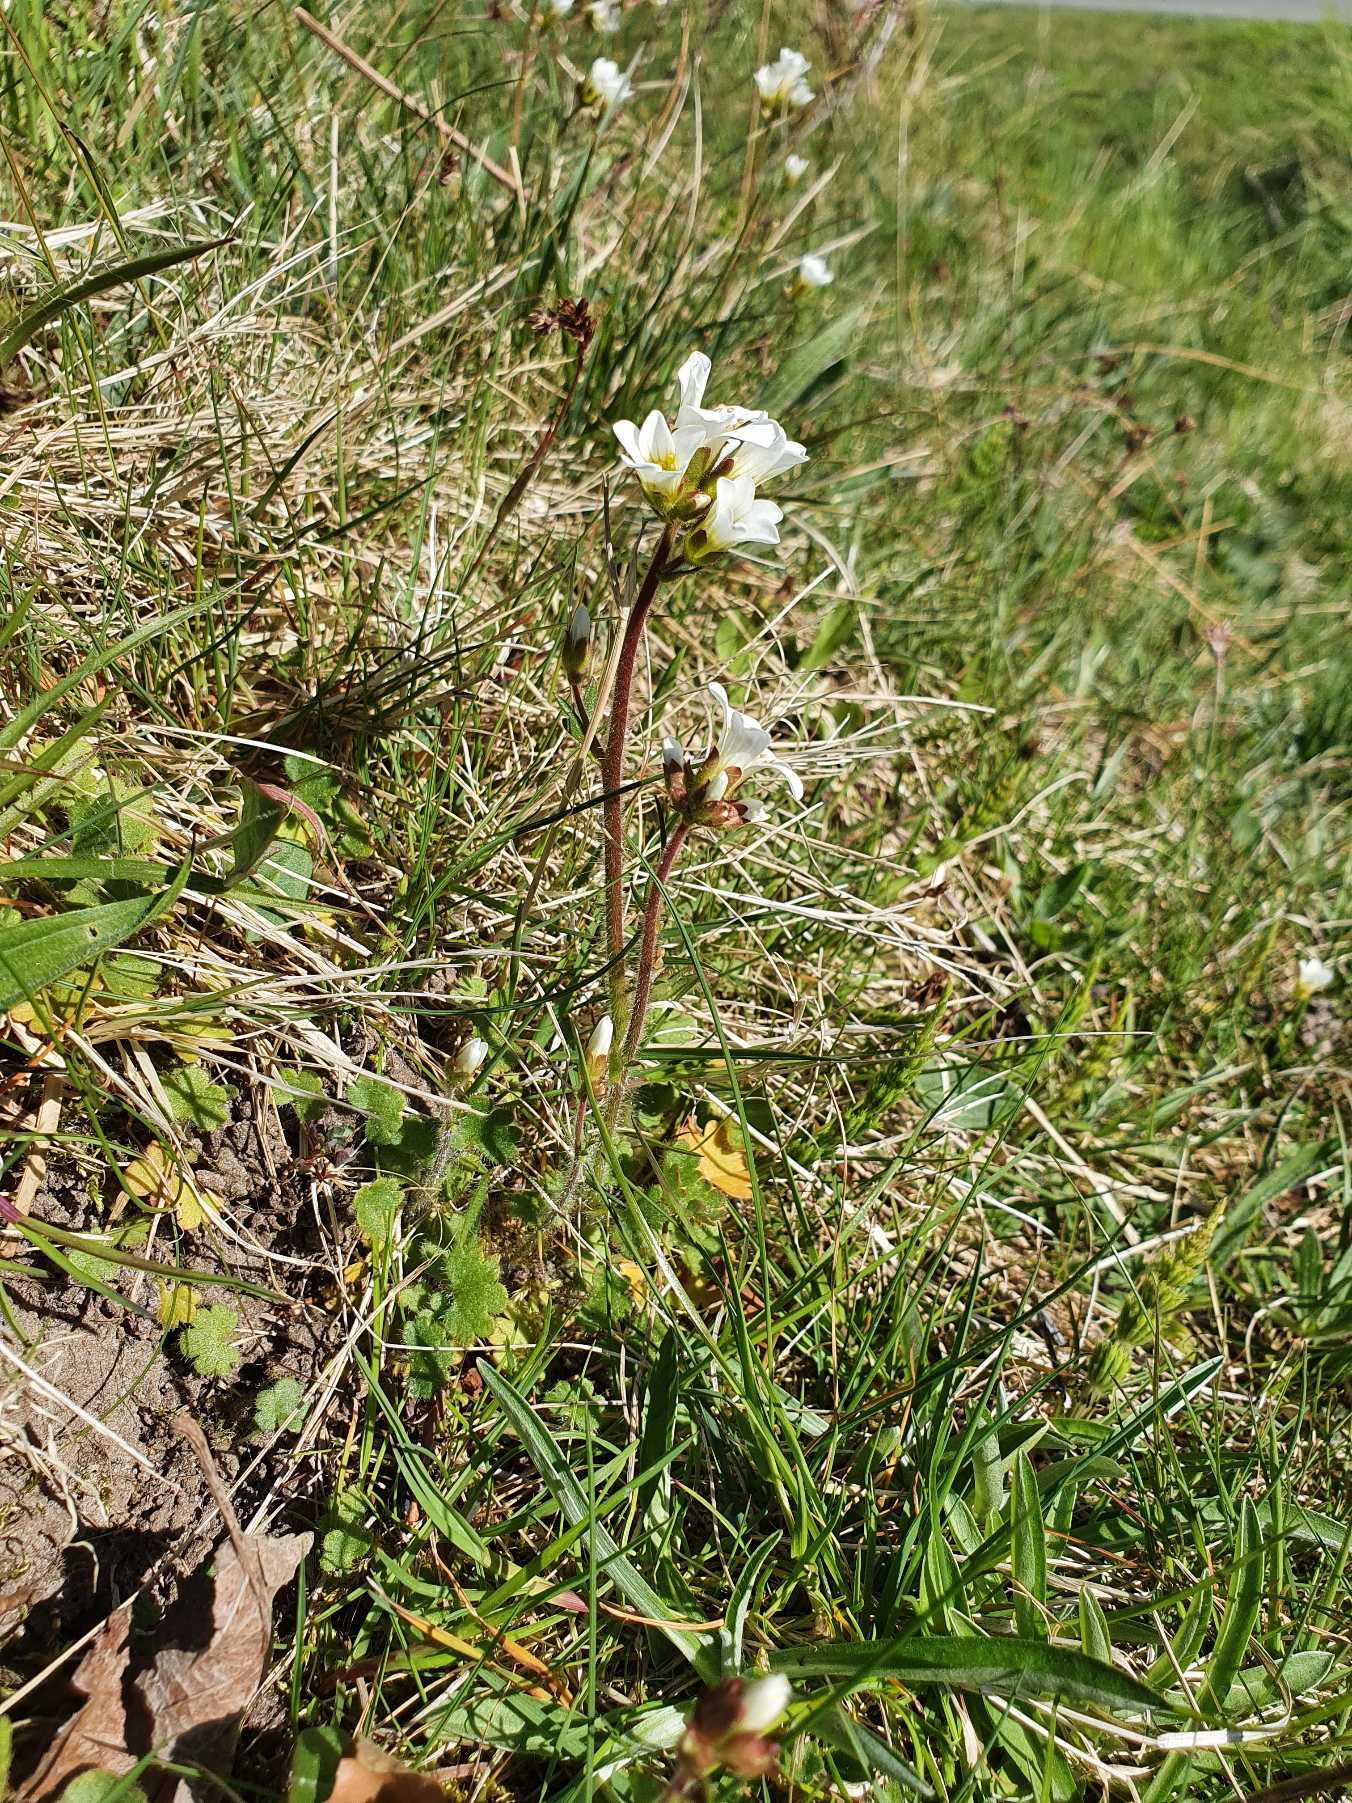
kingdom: Plantae
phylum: Tracheophyta
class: Magnoliopsida
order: Saxifragales
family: Saxifragaceae
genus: Saxifraga
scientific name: Saxifraga granulata
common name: Kornet stenbræk
